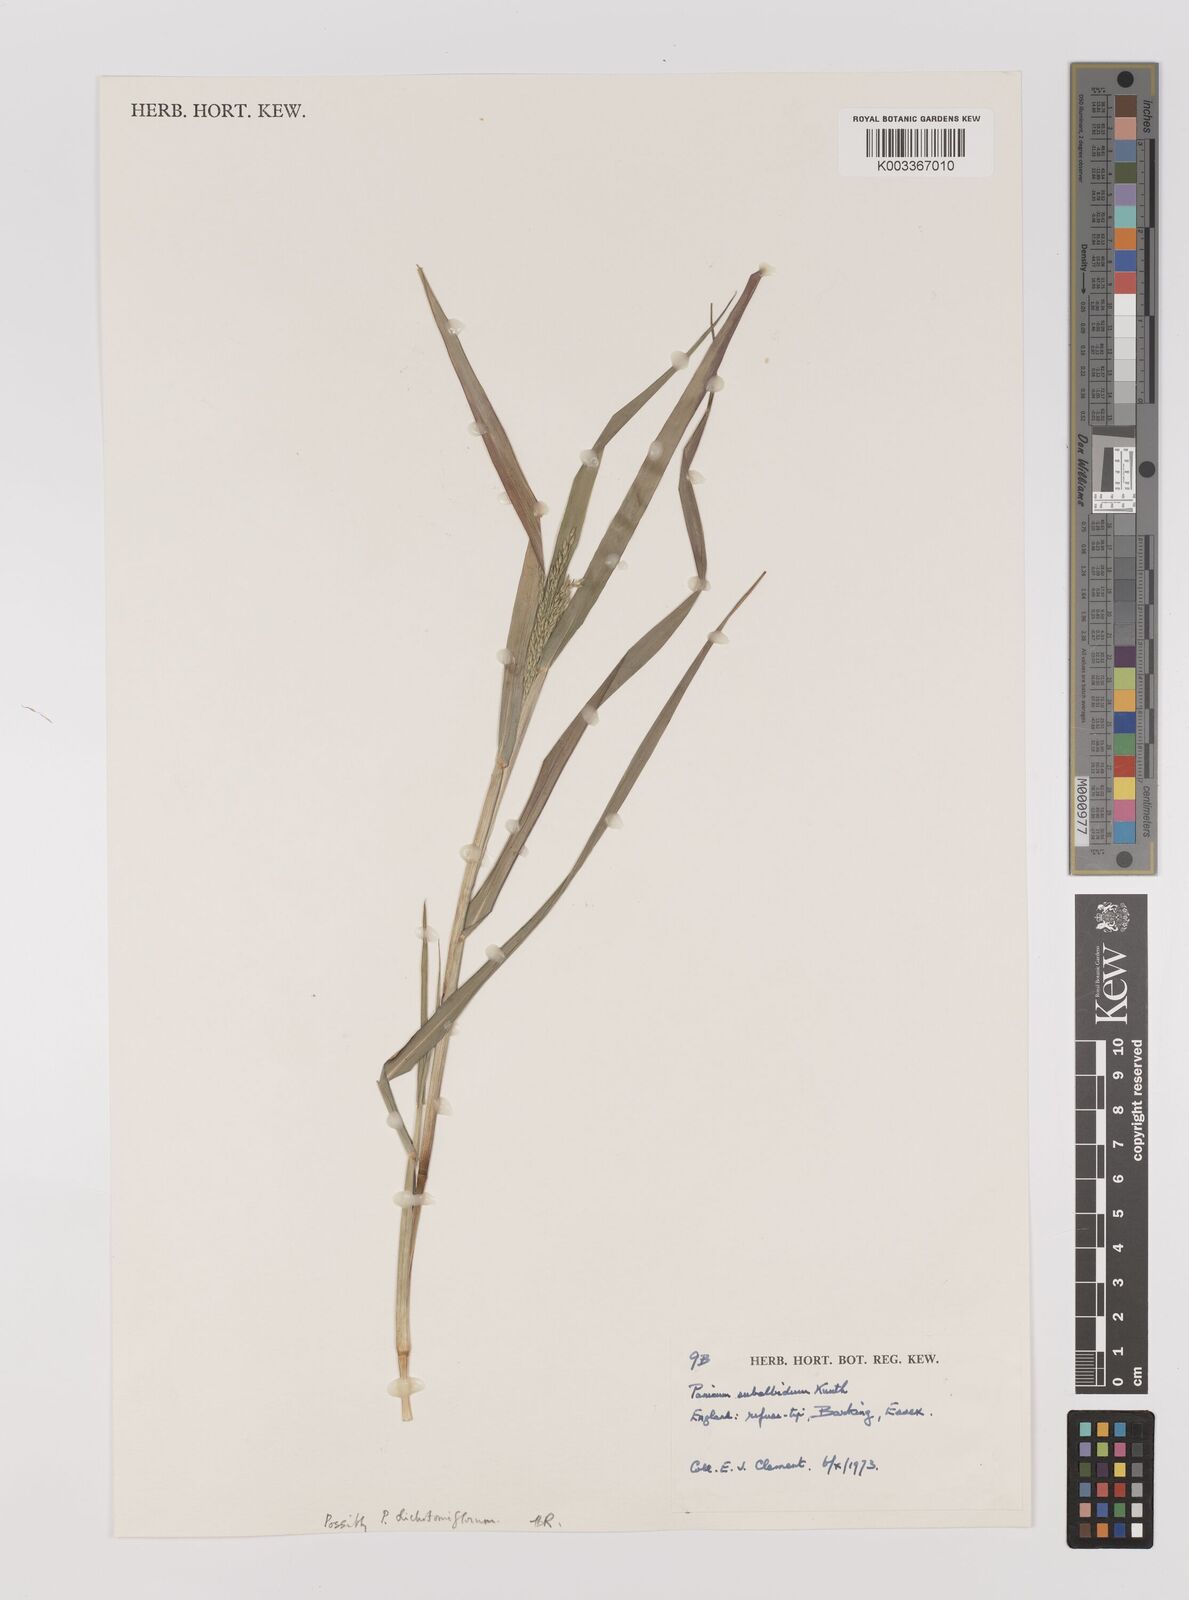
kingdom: Plantae
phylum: Tracheophyta
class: Liliopsida
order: Poales
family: Poaceae
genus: Panicum
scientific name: Panicum subalbidum
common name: Elbow buffalo grass
